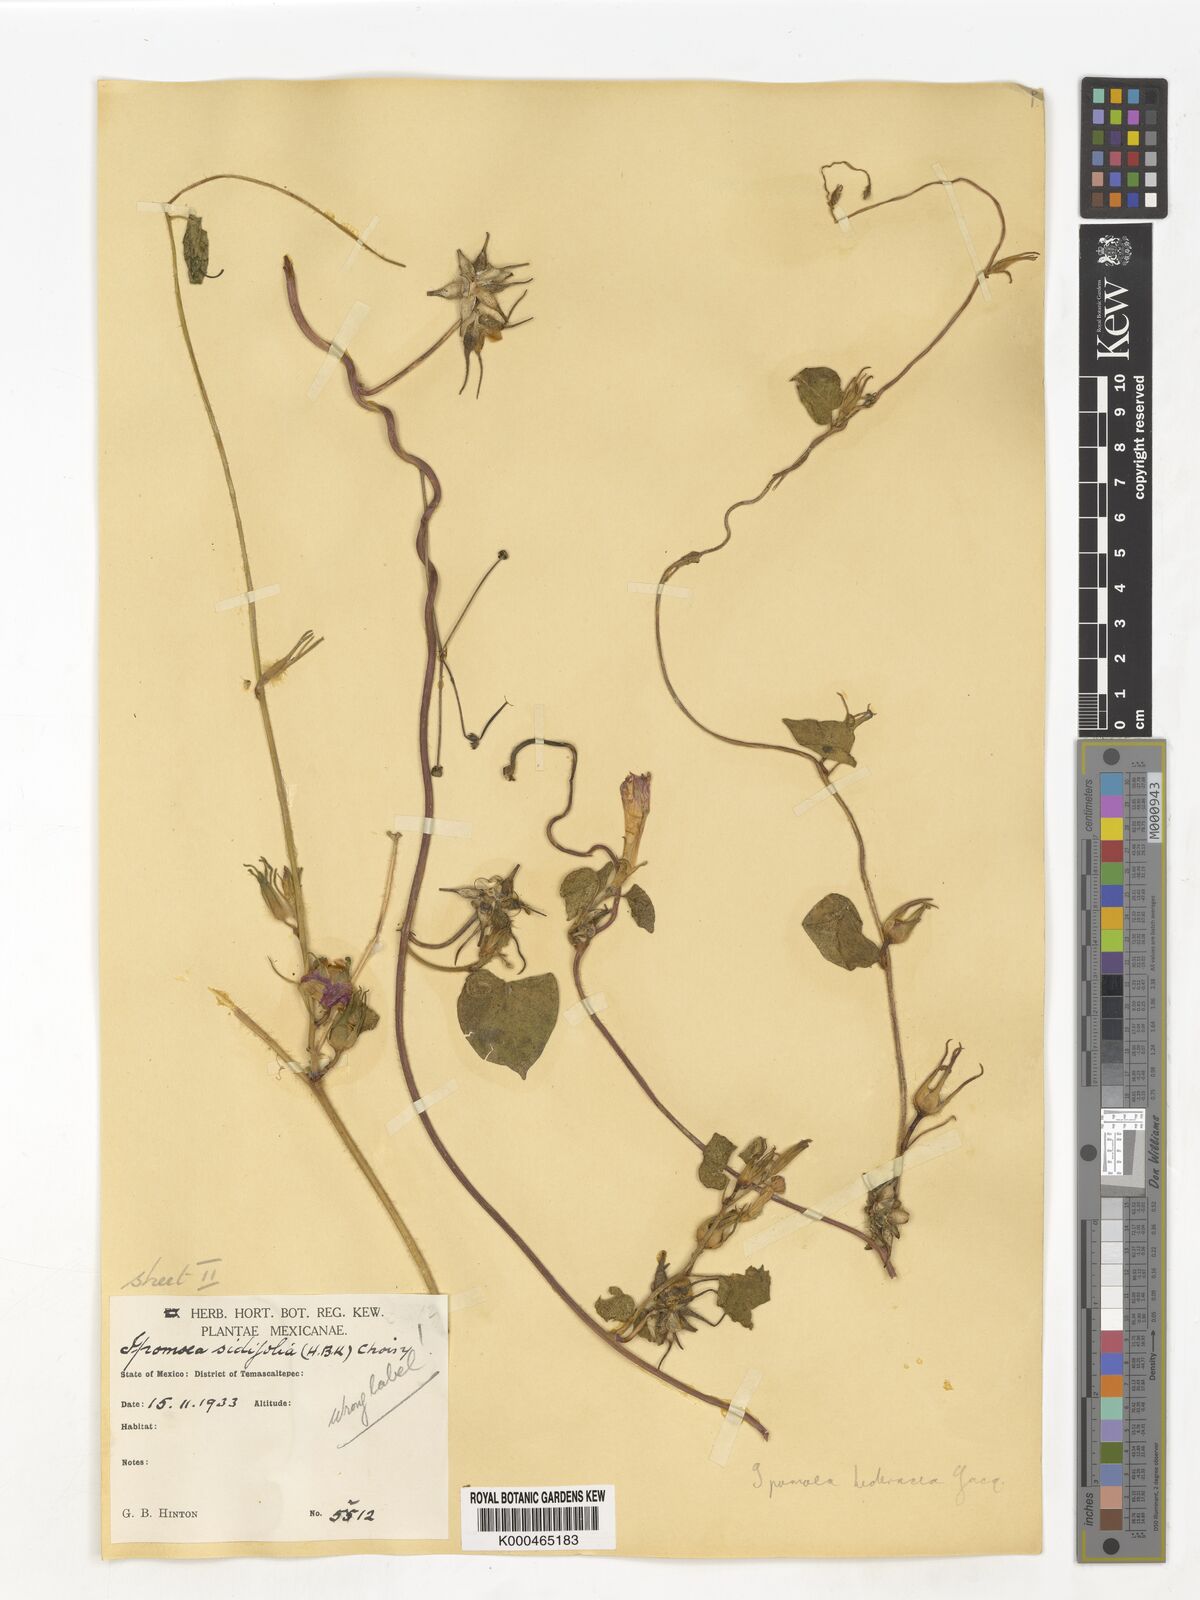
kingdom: Plantae
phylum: Tracheophyta
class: Magnoliopsida
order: Solanales
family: Convolvulaceae
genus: Ipomoea
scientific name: Ipomoea hederacea
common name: Ivy-leaved morning-glory
